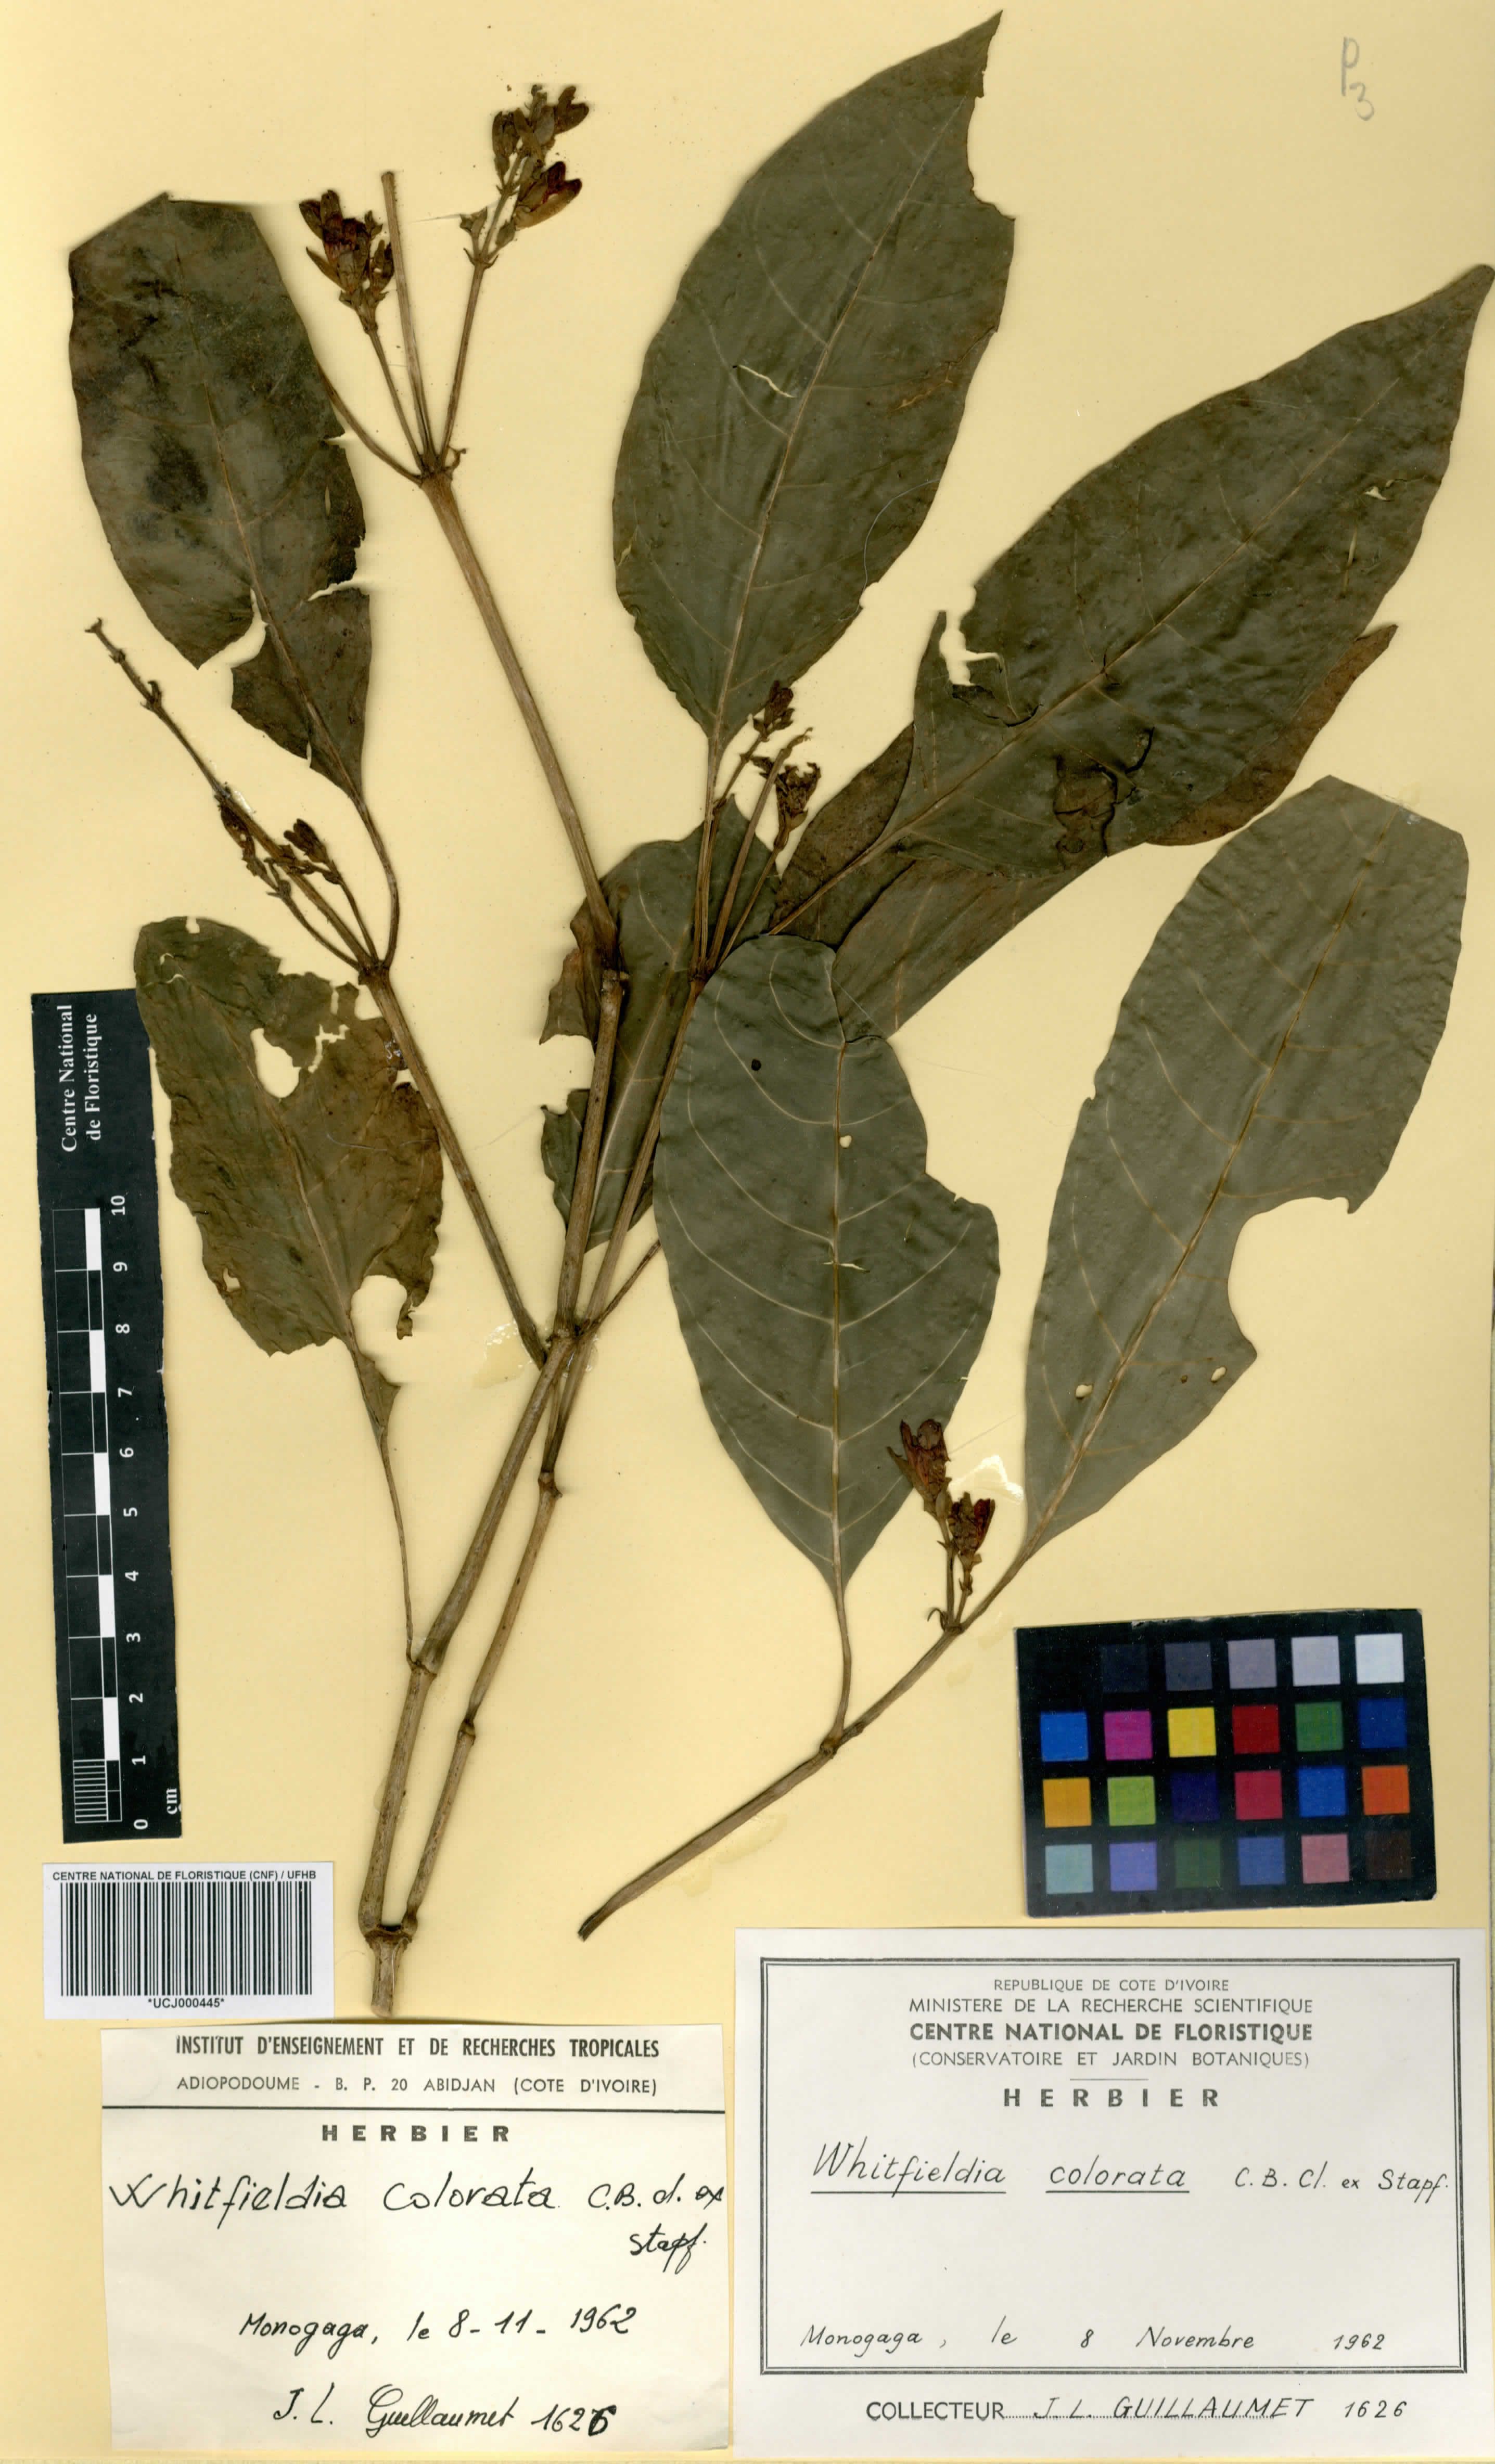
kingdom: Plantae
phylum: Tracheophyta
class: Magnoliopsida
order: Lamiales
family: Acanthaceae
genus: Whitfieldia
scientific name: Whitfieldia colorata
